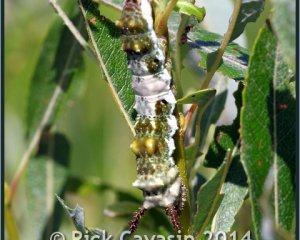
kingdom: Animalia
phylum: Arthropoda
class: Insecta
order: Lepidoptera
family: Nymphalidae
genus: Limenitis
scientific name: Limenitis archippus
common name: Viceroy
